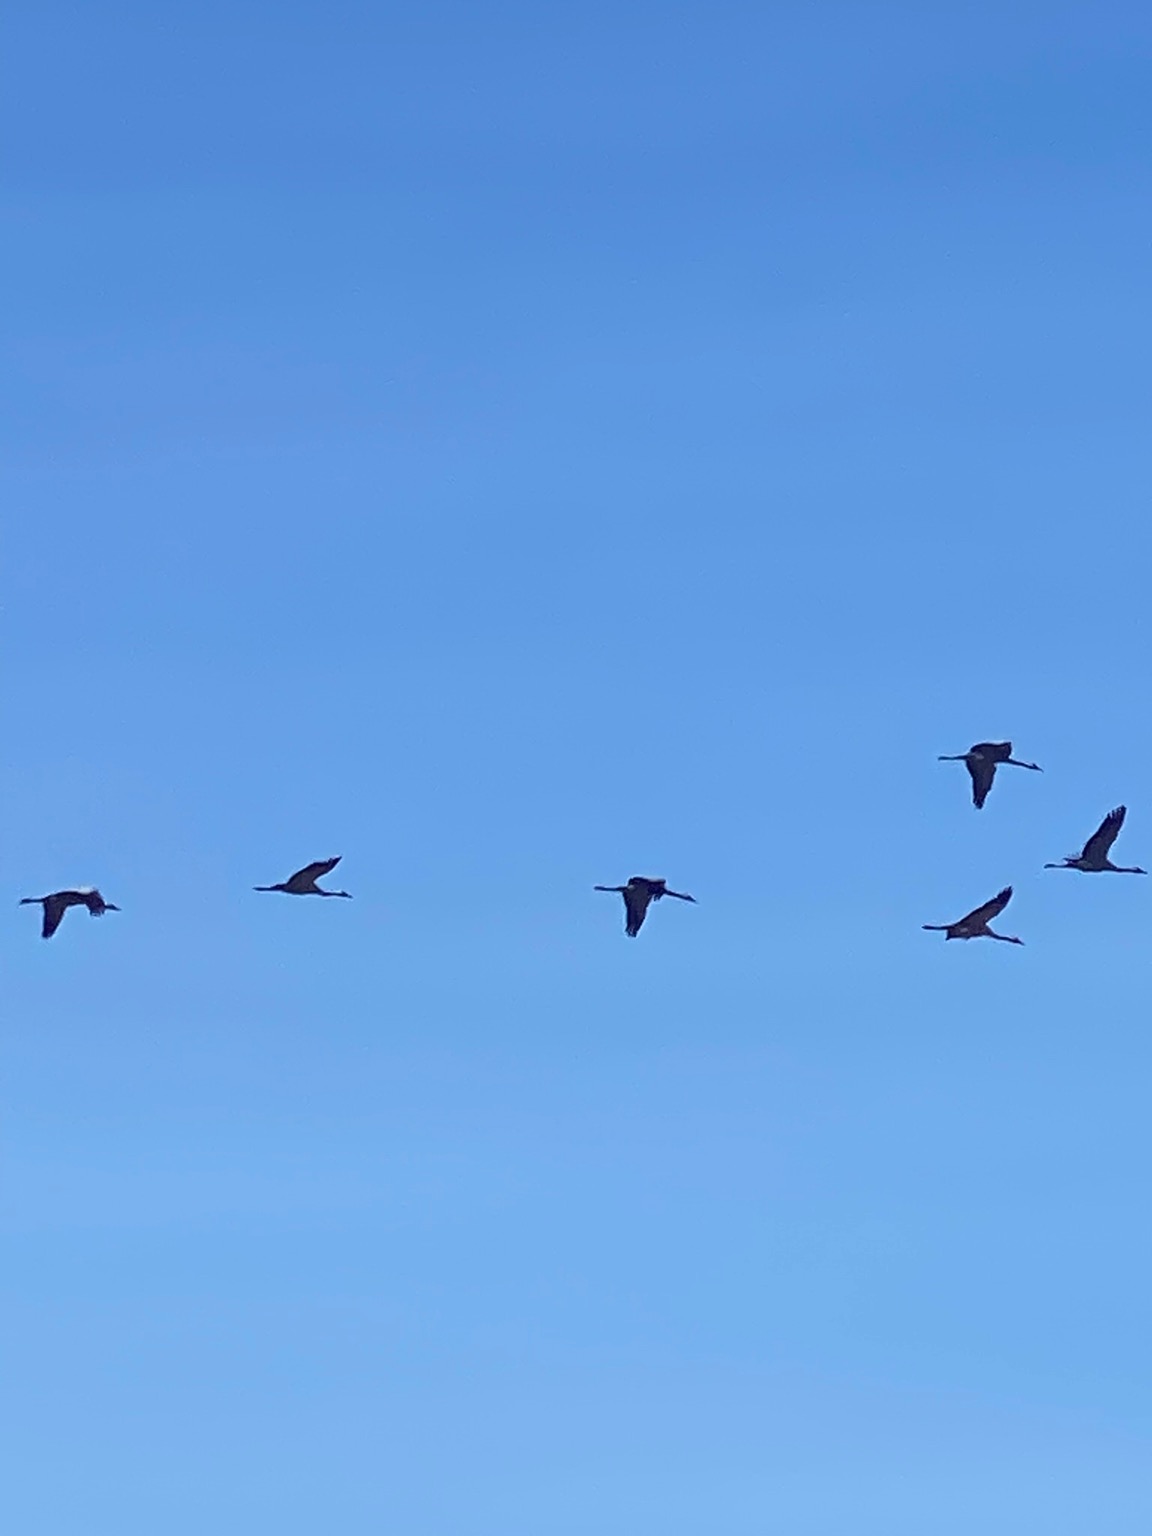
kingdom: Animalia
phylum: Chordata
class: Aves
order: Gruiformes
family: Gruidae
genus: Grus
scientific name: Grus grus
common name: Trane
